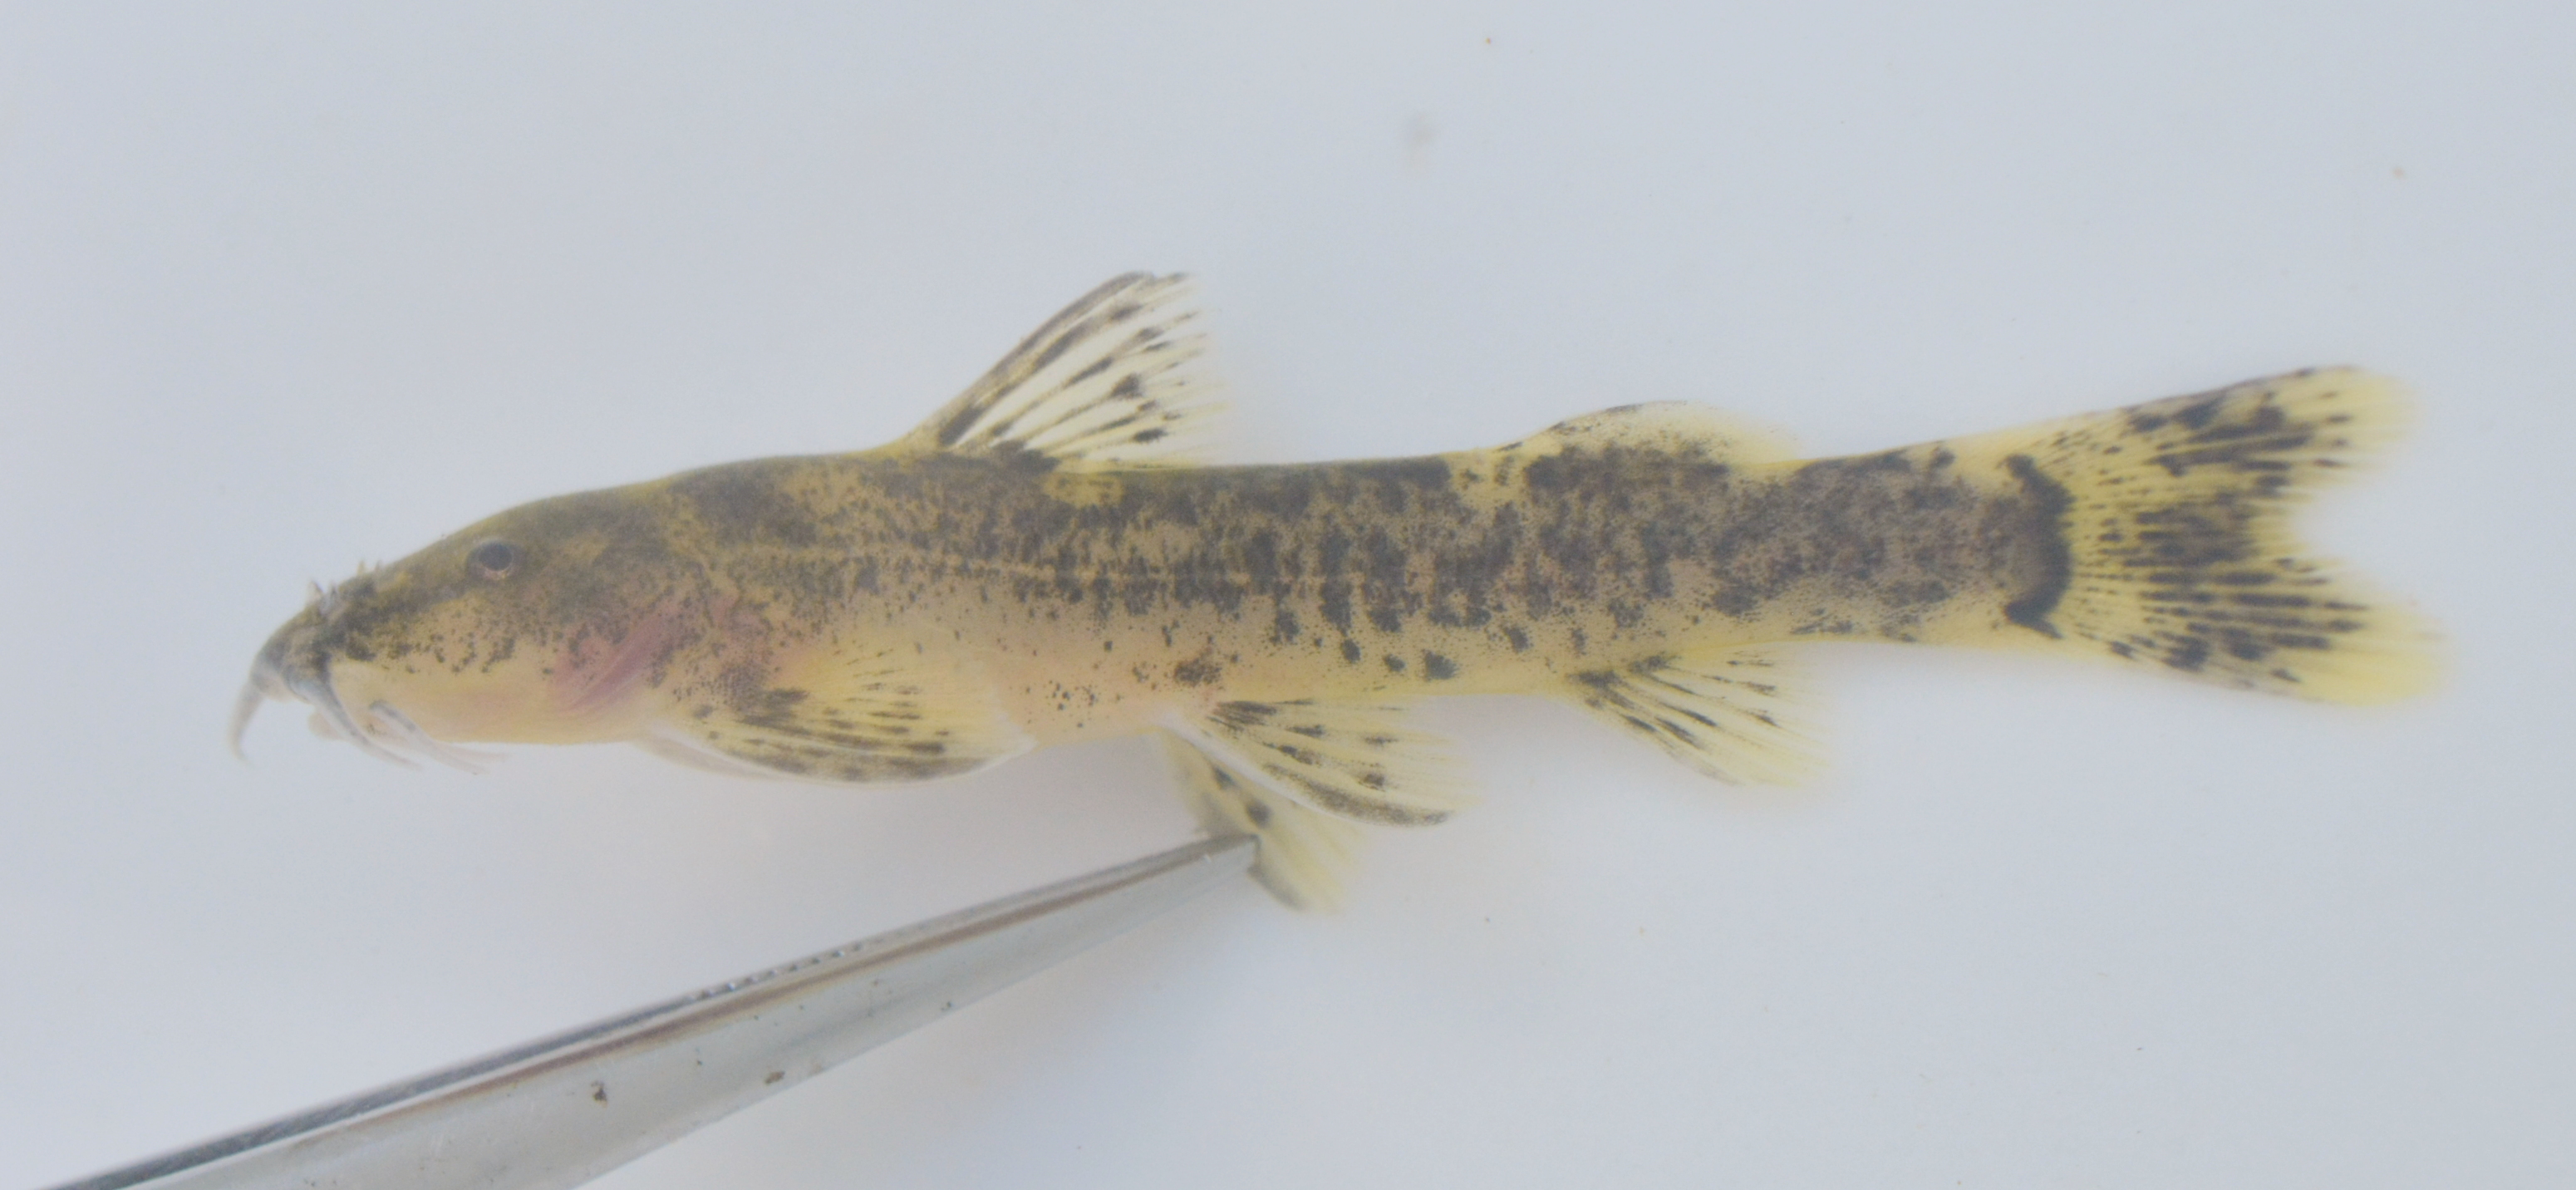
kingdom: Animalia
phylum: Chordata
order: Siluriformes
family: Amphiliidae
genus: Amphilius
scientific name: Amphilius uranoscopus
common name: Stargazer mountain catfish
